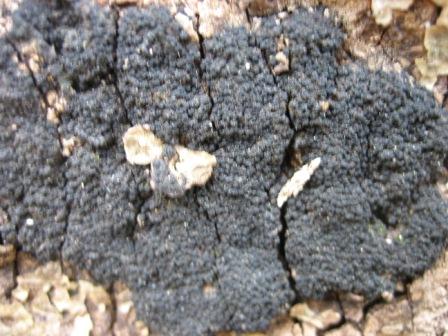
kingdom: Fungi
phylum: Ascomycota
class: Sordariomycetes
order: Xylariales
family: Diatrypaceae
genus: Eutypa
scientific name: Eutypa spinosa
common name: grov kulskorpe
